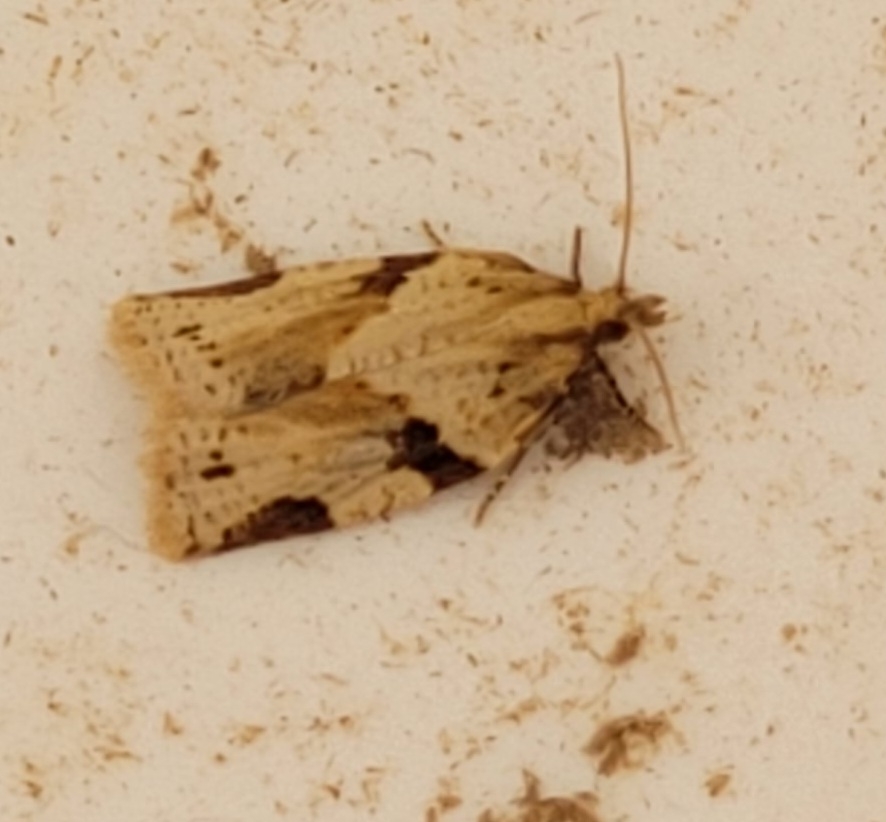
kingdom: Animalia
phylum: Arthropoda
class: Insecta
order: Lepidoptera
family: Tortricidae
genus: Clepsis
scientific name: Clepsis spectrana
